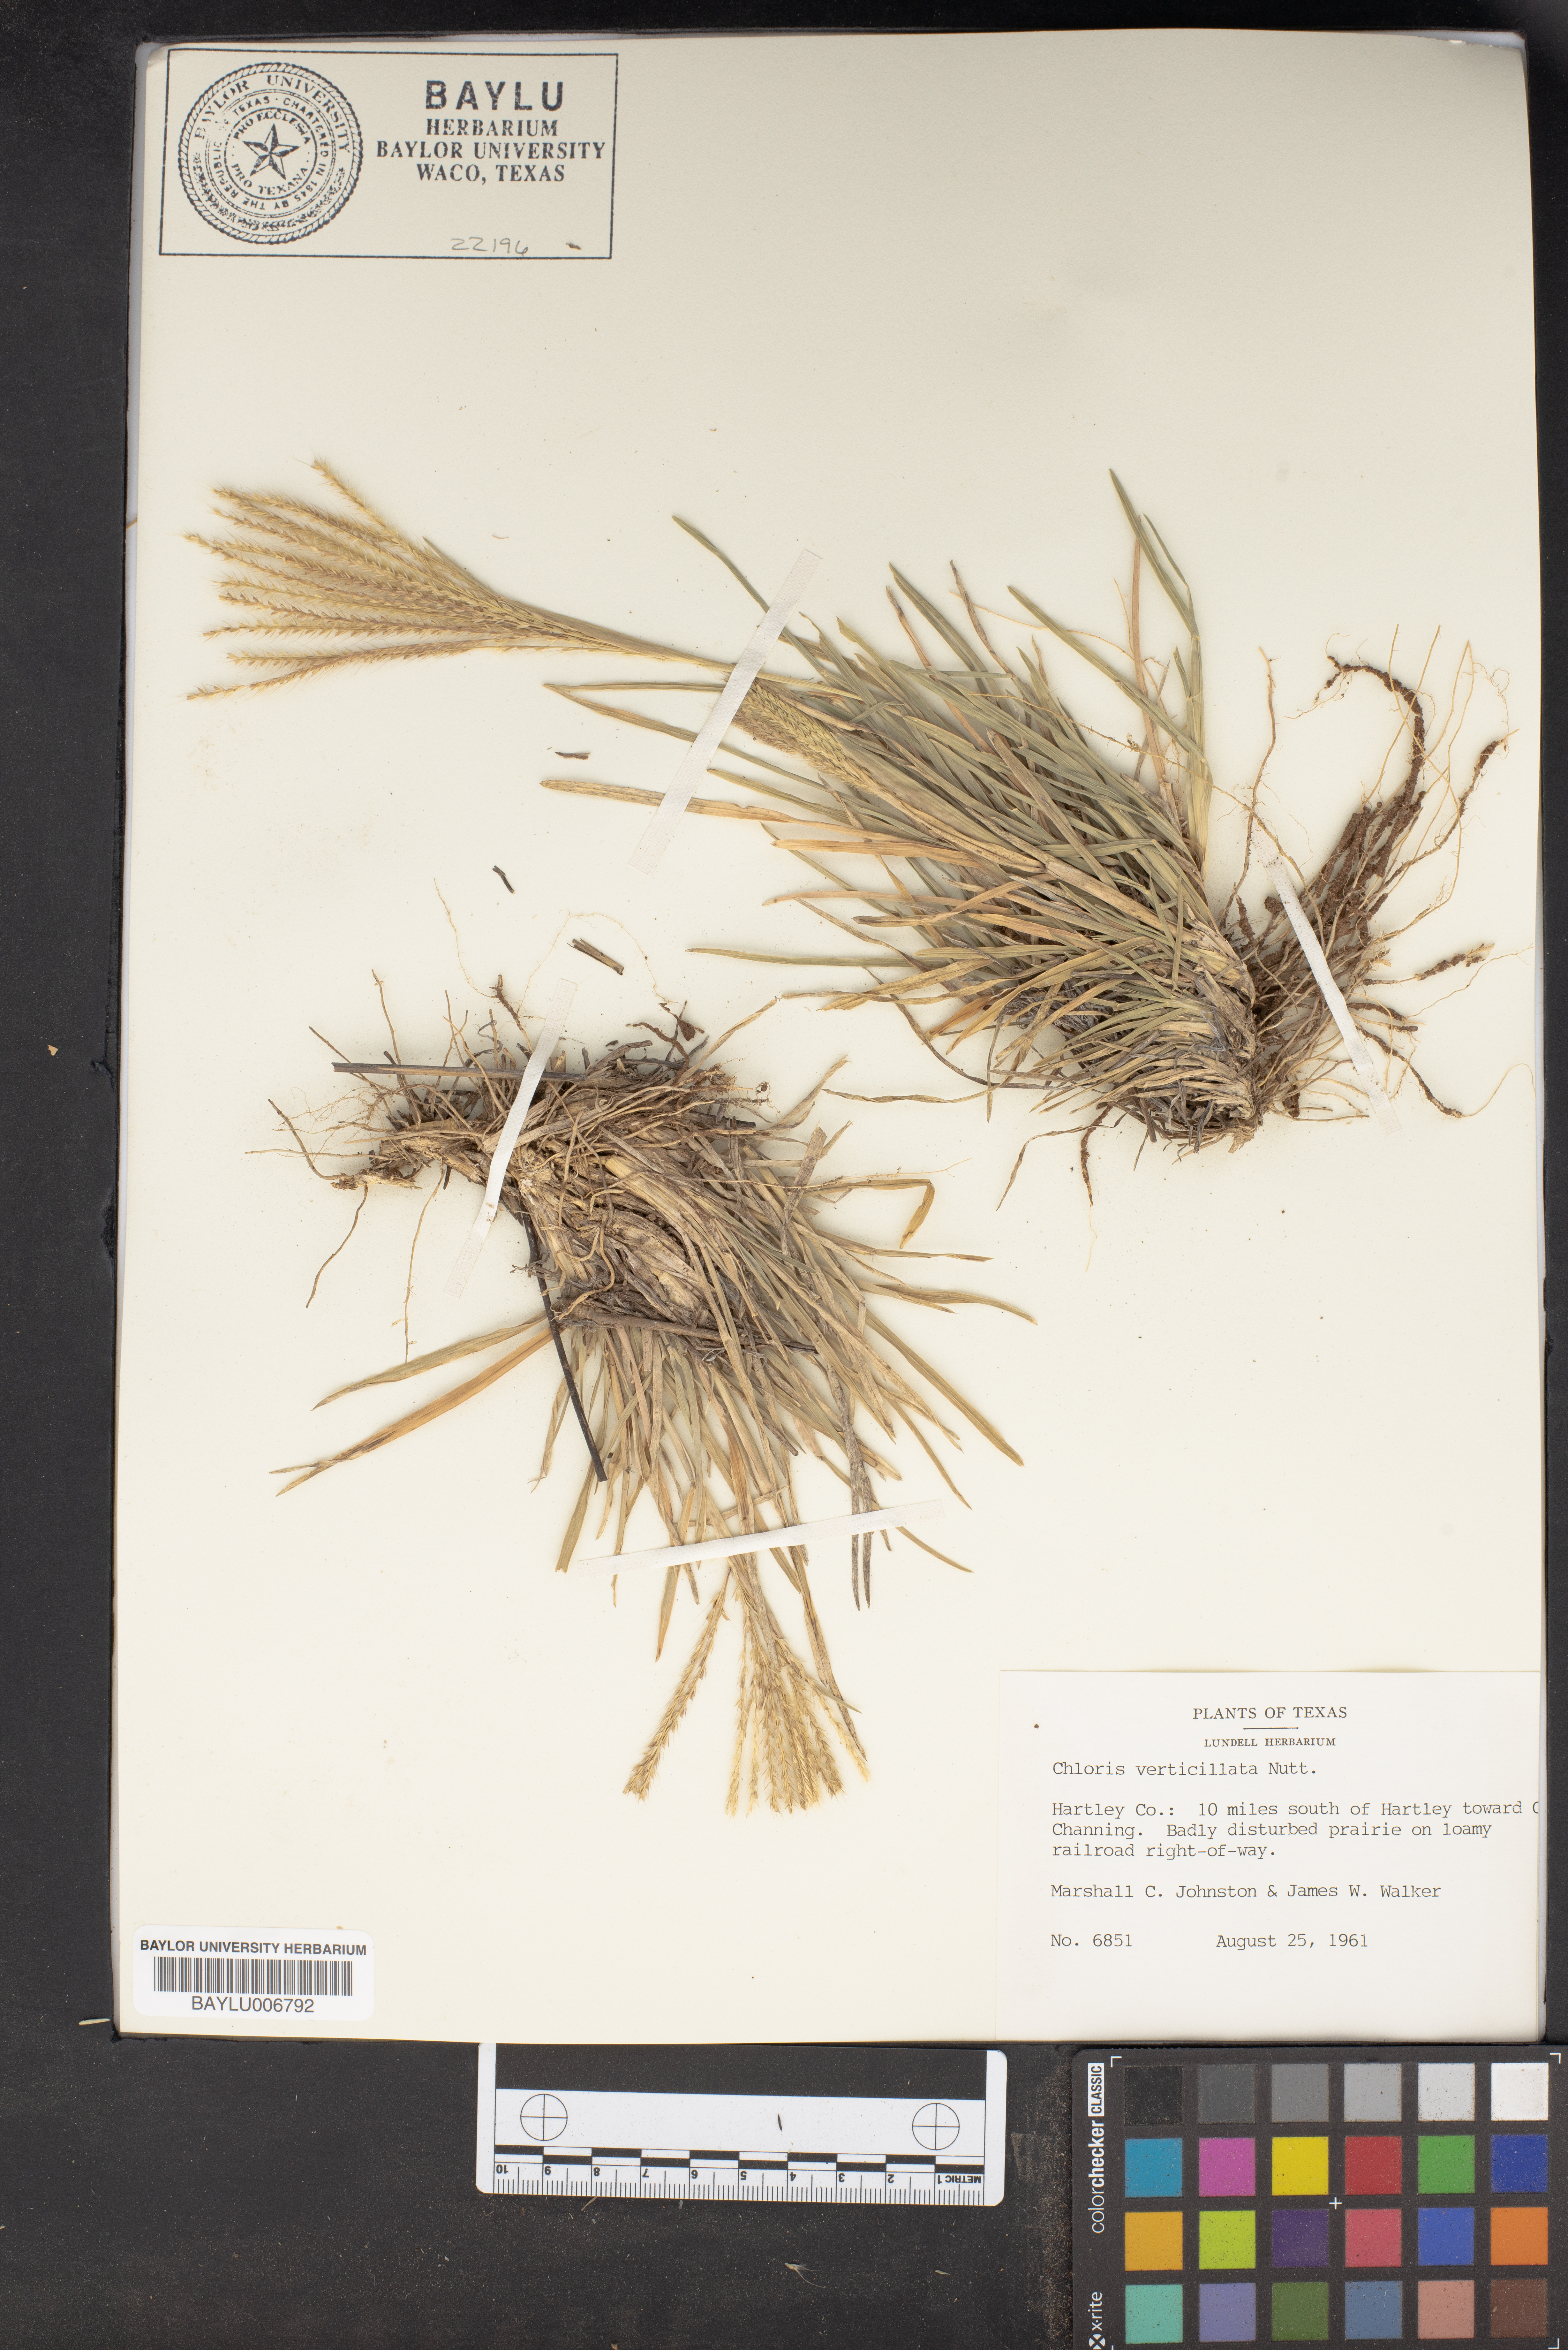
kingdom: Plantae
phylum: Tracheophyta
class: Liliopsida
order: Poales
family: Poaceae
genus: Chloris
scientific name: Chloris verticillata
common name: Tumble windmill grass
